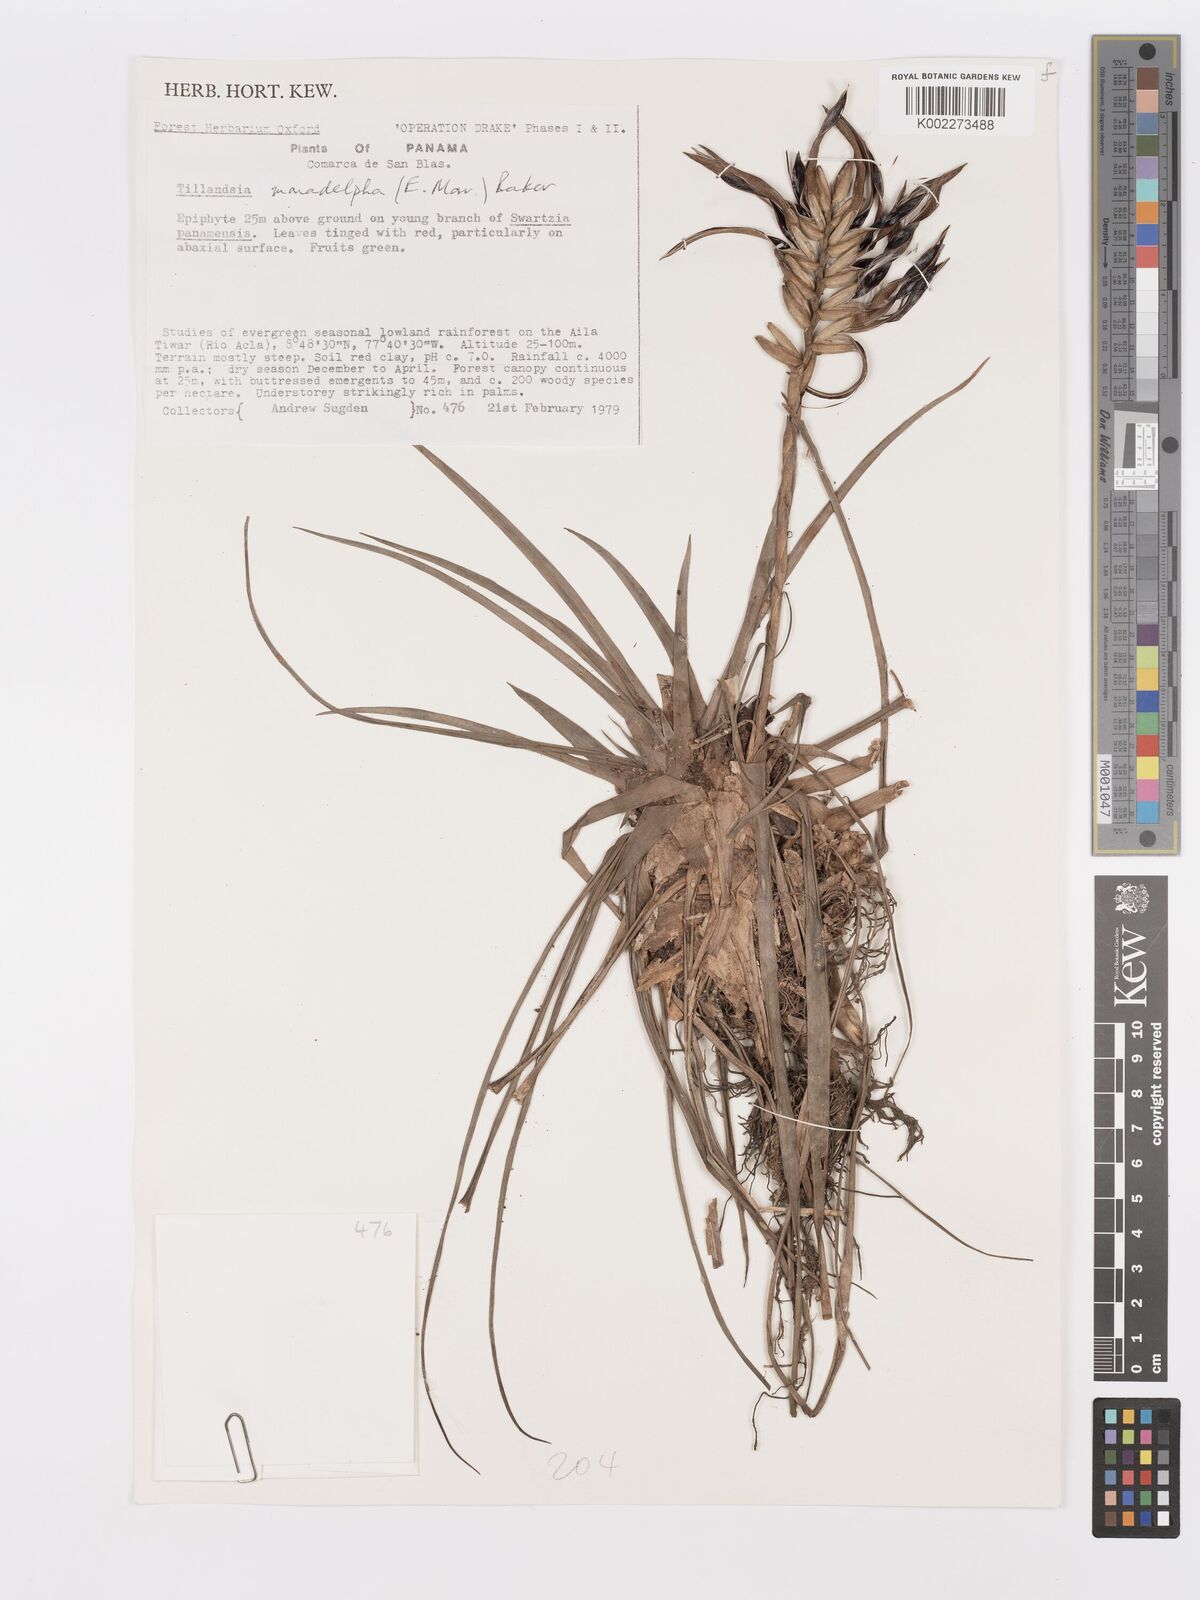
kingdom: Plantae
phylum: Tracheophyta
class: Liliopsida
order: Poales
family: Bromeliaceae
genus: Lemeltonia
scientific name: Lemeltonia monadelpha
